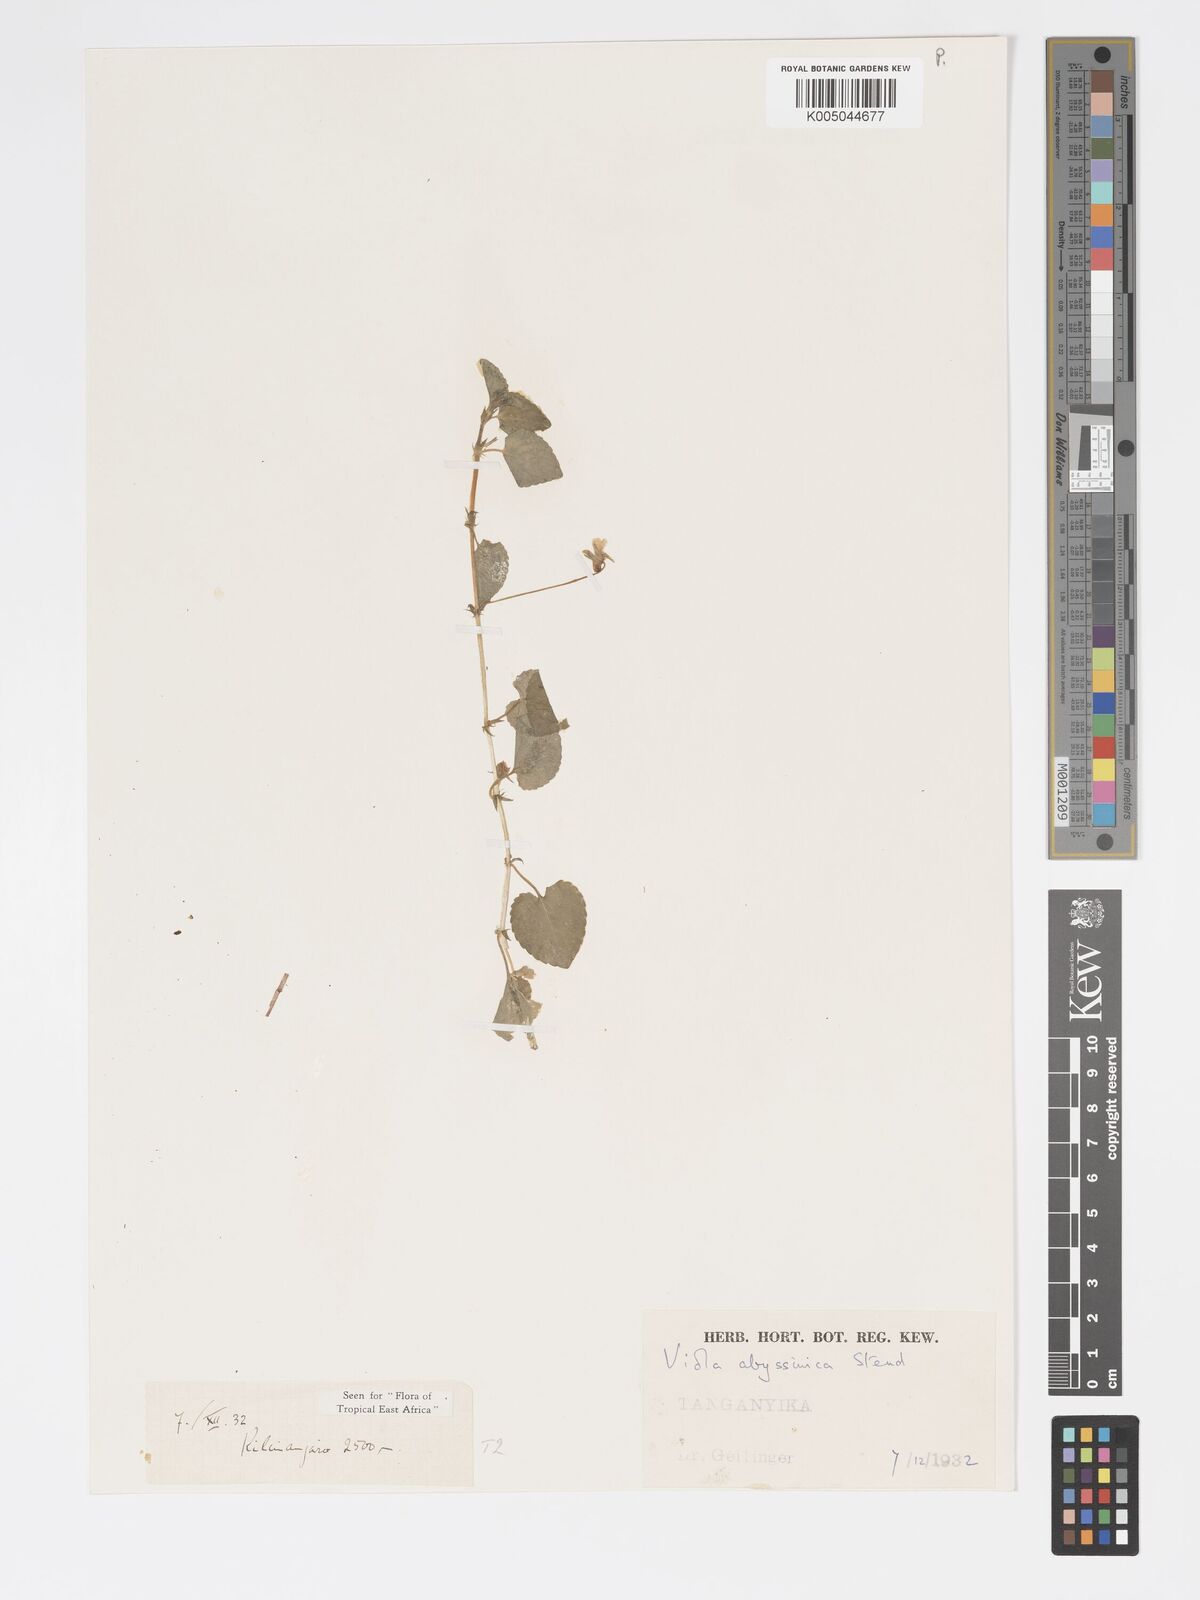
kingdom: Plantae
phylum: Tracheophyta
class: Magnoliopsida
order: Malpighiales
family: Violaceae
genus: Viola
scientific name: Viola abyssinica
